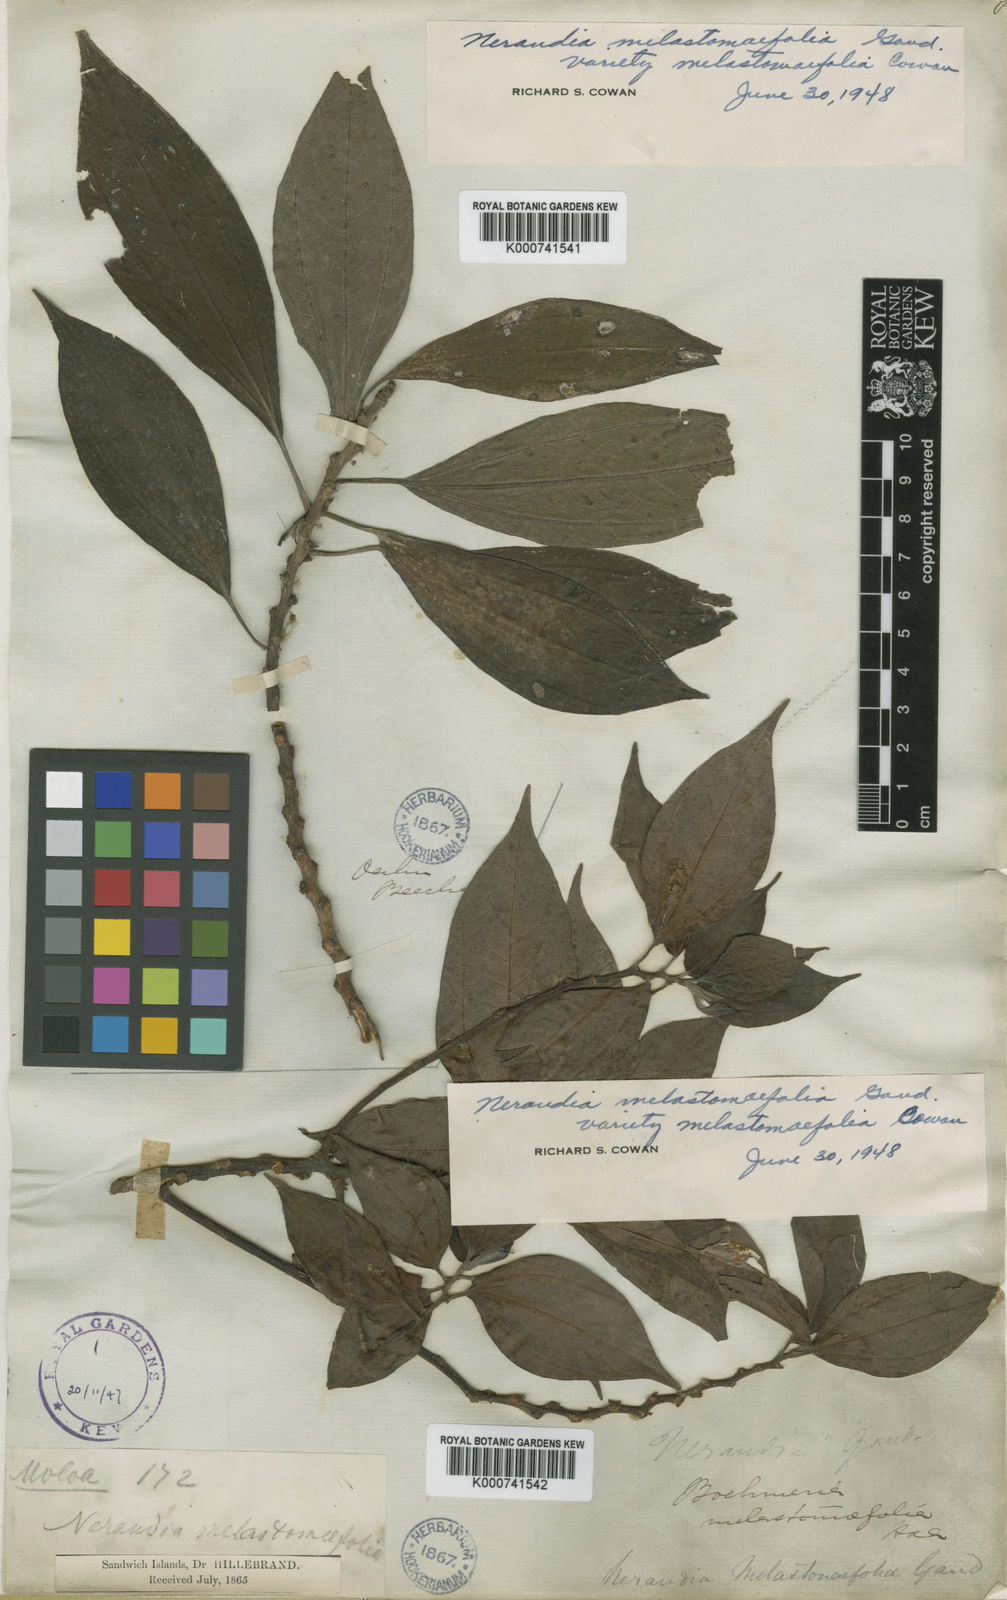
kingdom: Plantae
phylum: Tracheophyta
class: Magnoliopsida
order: Rosales
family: Urticaceae
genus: Neraudia
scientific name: Neraudia melastomifolia
